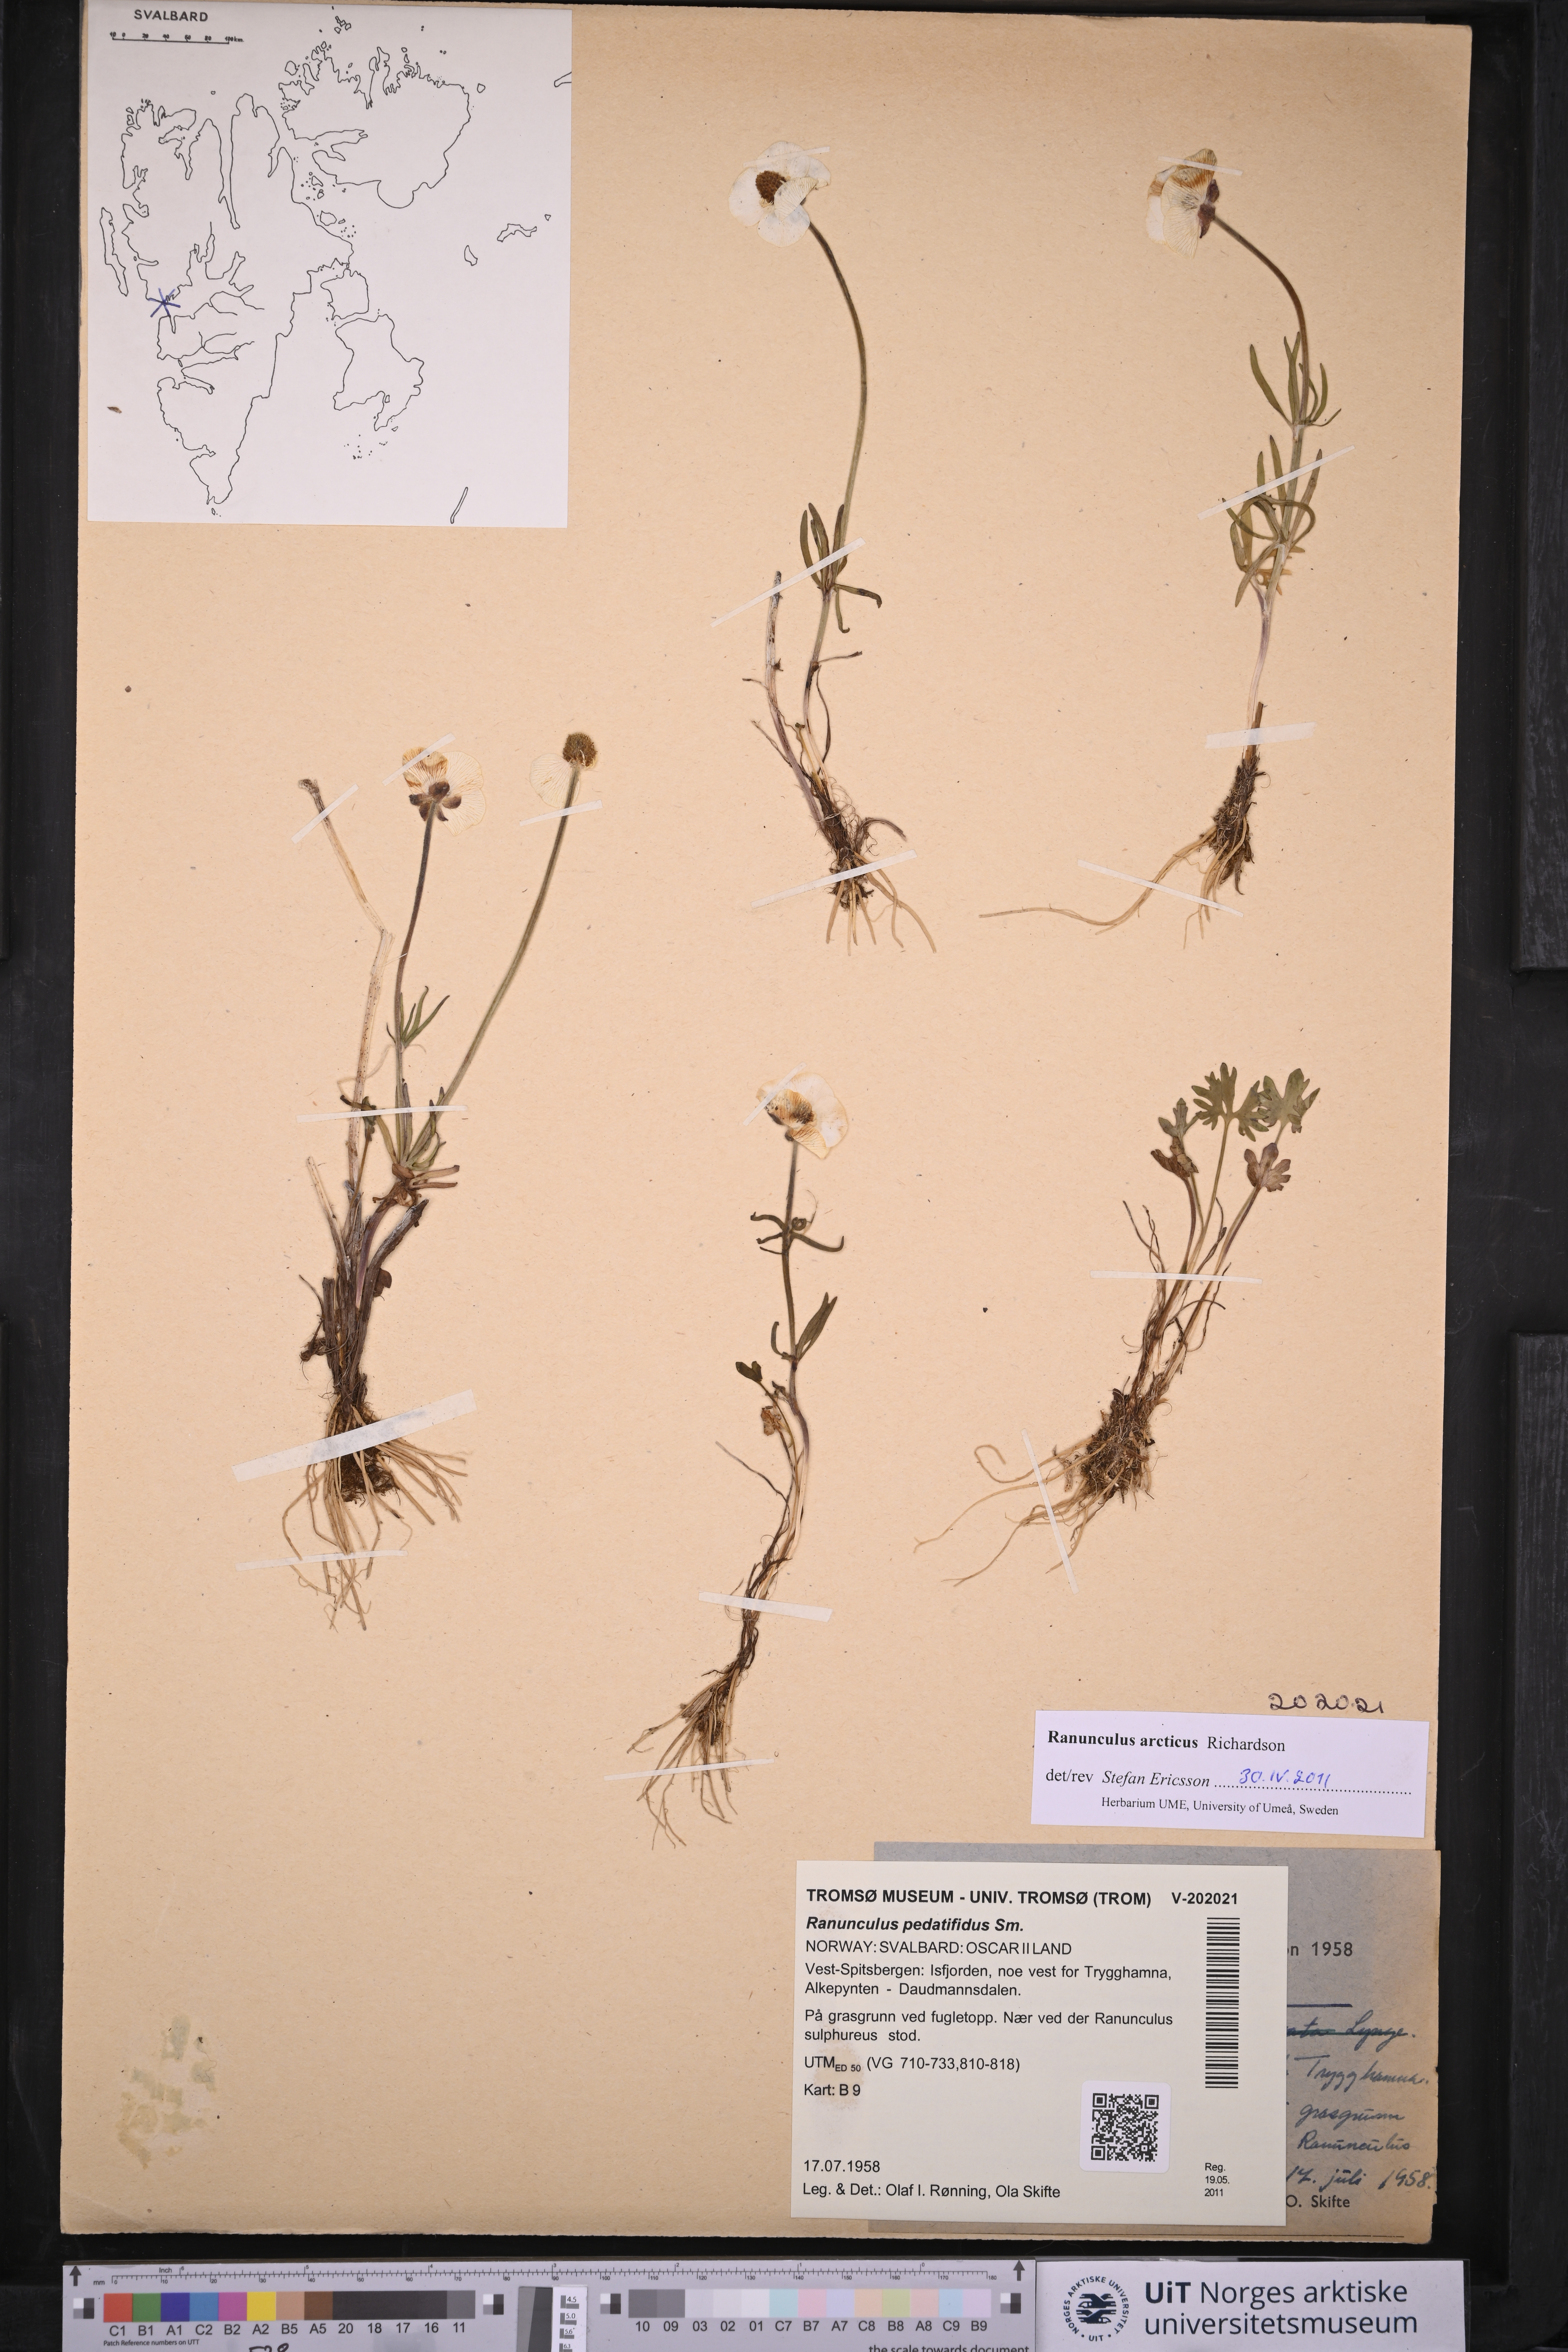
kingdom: Plantae
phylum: Tracheophyta
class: Magnoliopsida
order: Ranunculales
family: Ranunculaceae
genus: Ranunculus
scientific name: Ranunculus arcticus
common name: Bird's-foot buttercup
